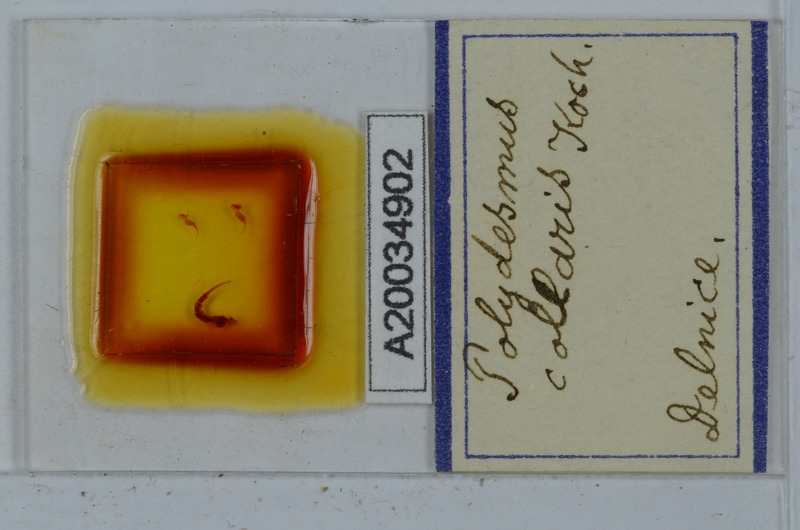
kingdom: Animalia
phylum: Arthropoda
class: Diplopoda
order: Polydesmida
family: Polydesmidae
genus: Polydesmus
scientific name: Polydesmus collaris
